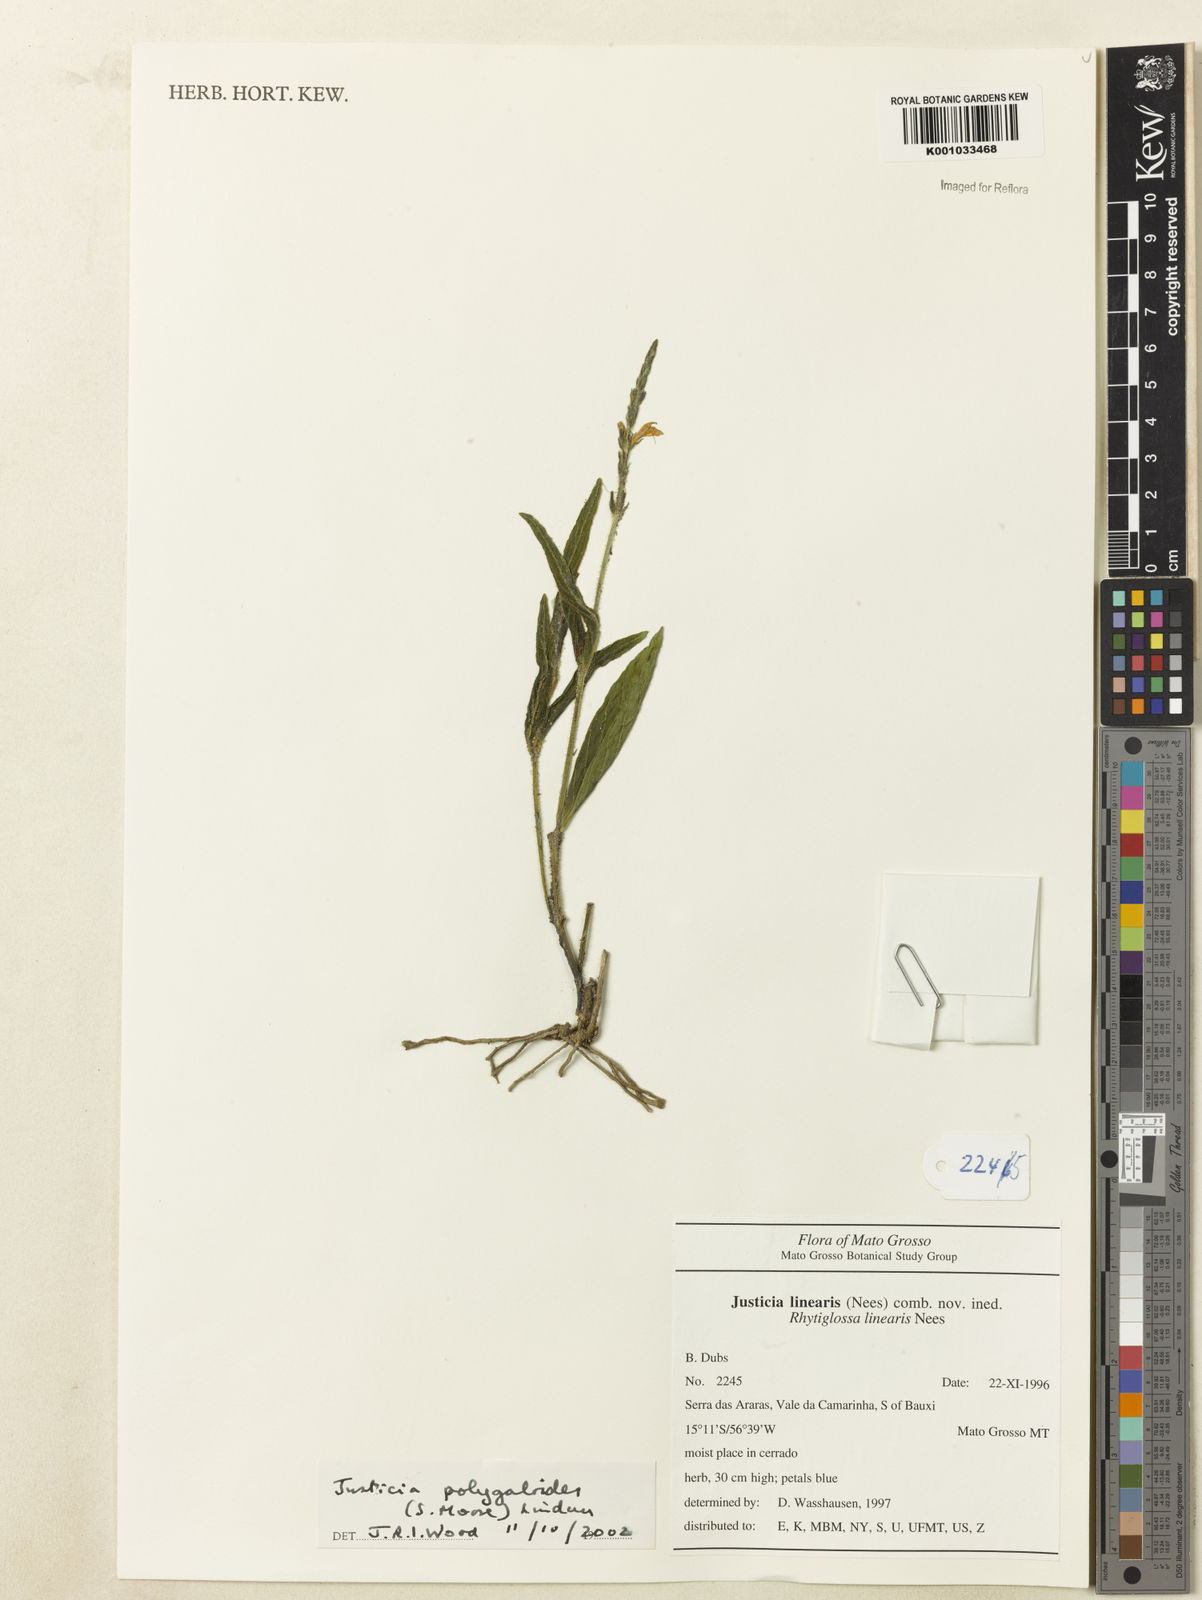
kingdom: Plantae
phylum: Tracheophyta
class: Magnoliopsida
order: Lamiales
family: Acanthaceae
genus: Dianthera
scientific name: Dianthera polygaloides
